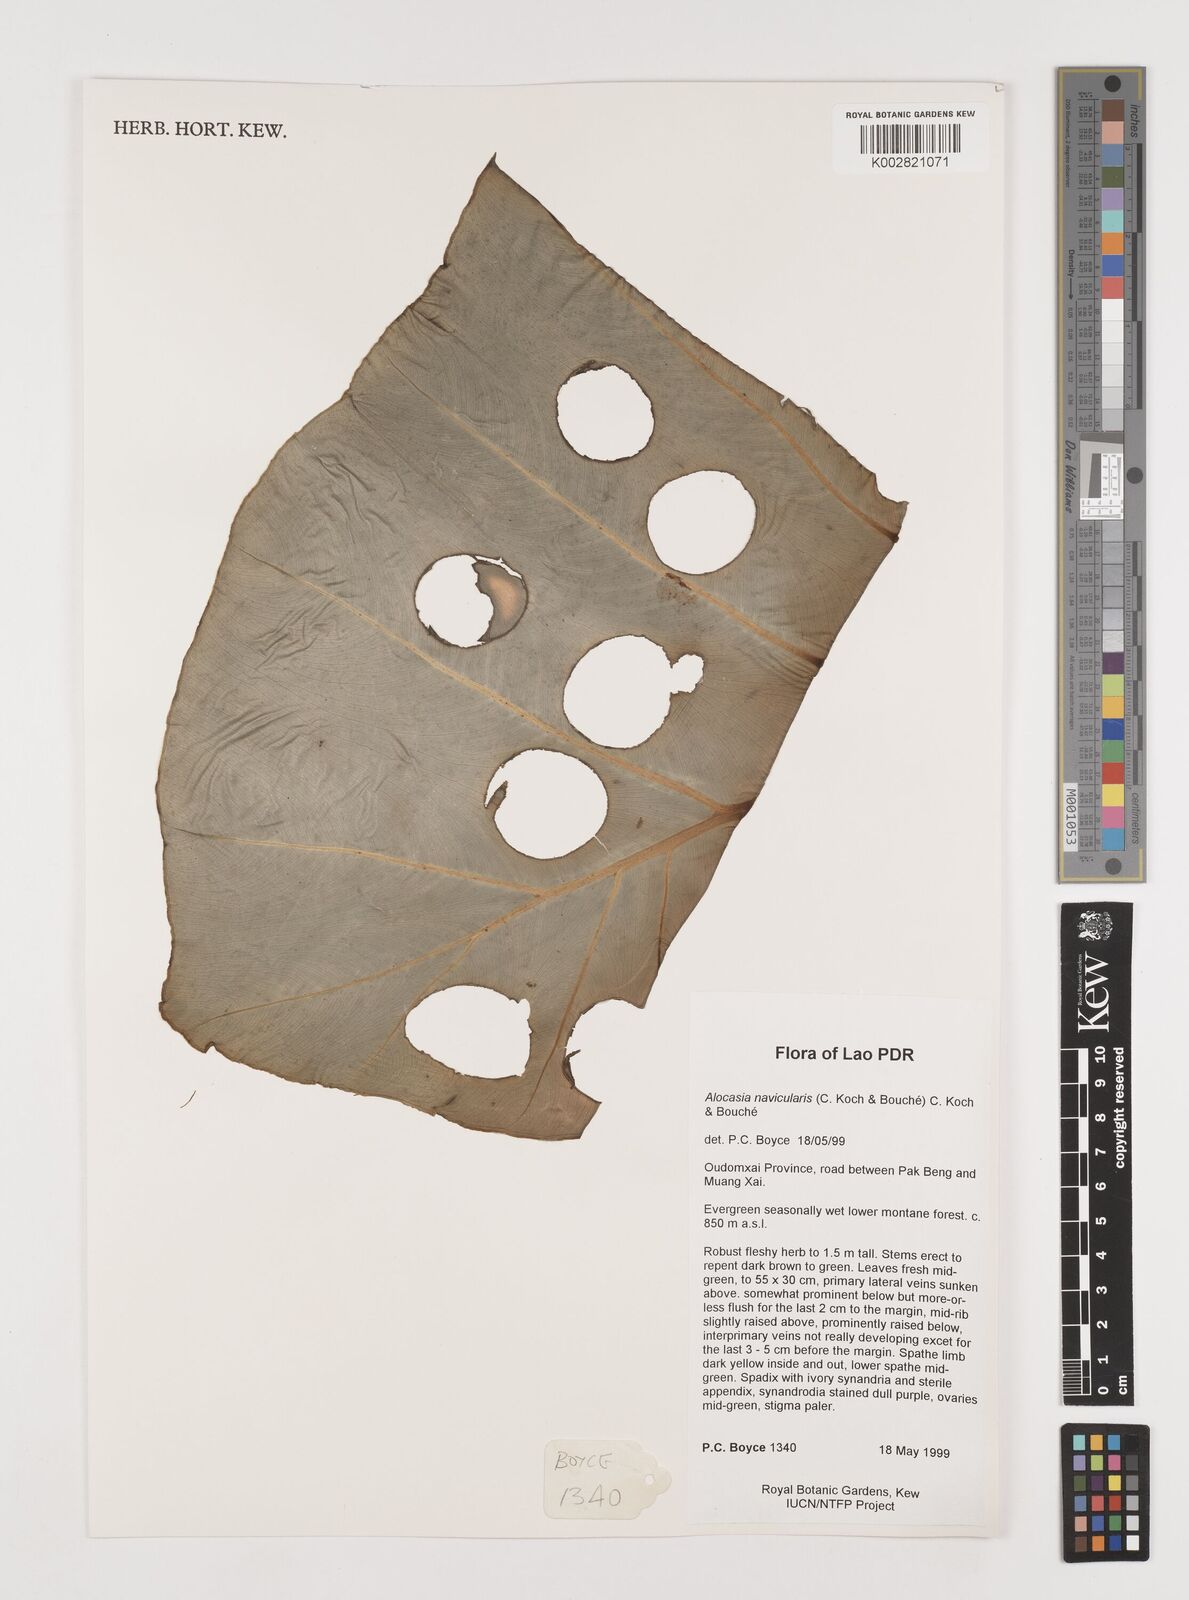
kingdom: Plantae
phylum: Tracheophyta
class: Liliopsida
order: Alismatales
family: Araceae
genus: Alocasia
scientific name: Alocasia navicularis
